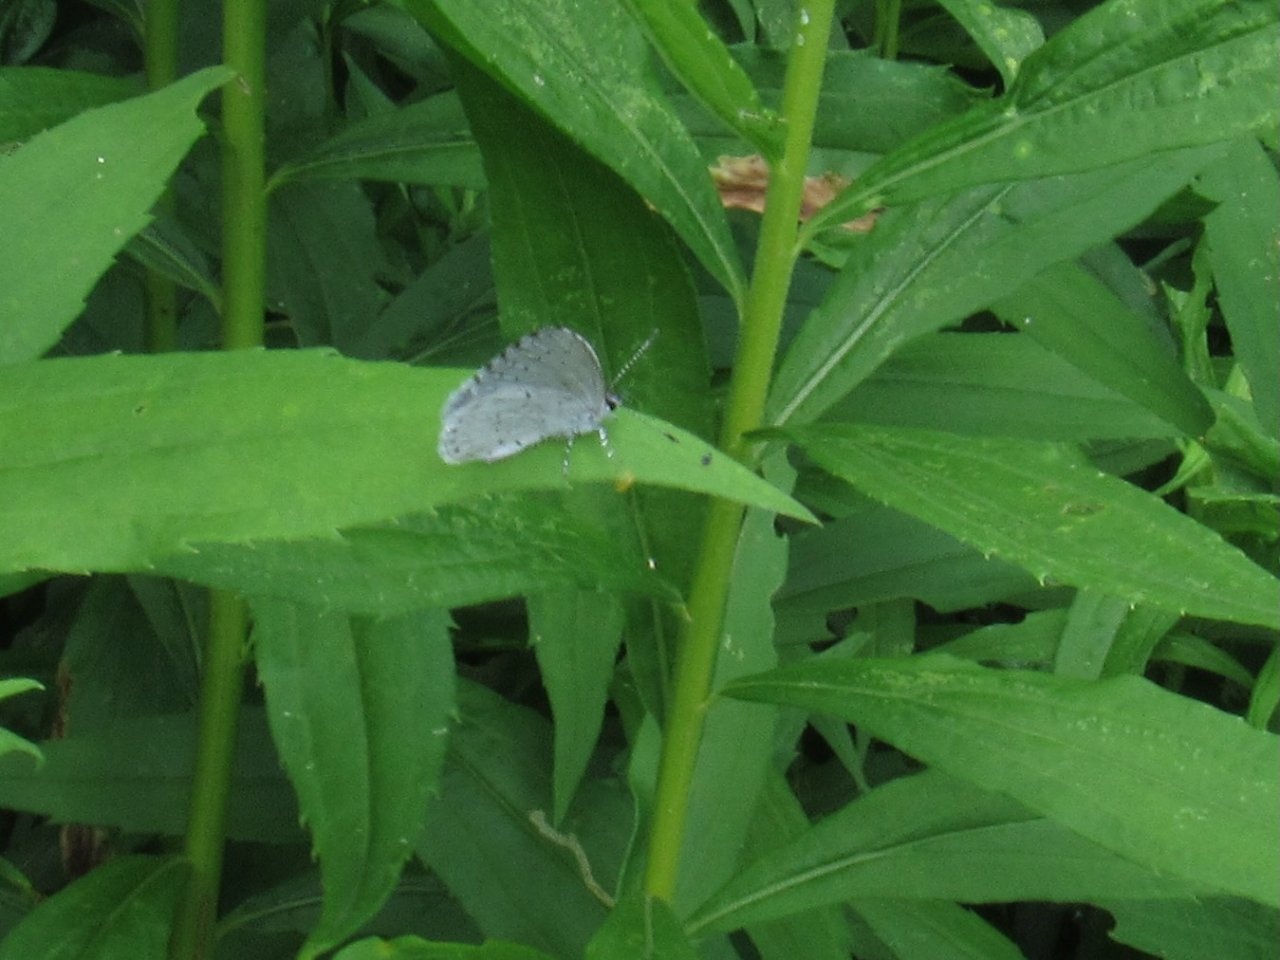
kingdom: Animalia
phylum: Arthropoda
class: Insecta
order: Lepidoptera
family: Lycaenidae
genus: Cyaniris
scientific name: Cyaniris neglecta
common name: Summer Azure
